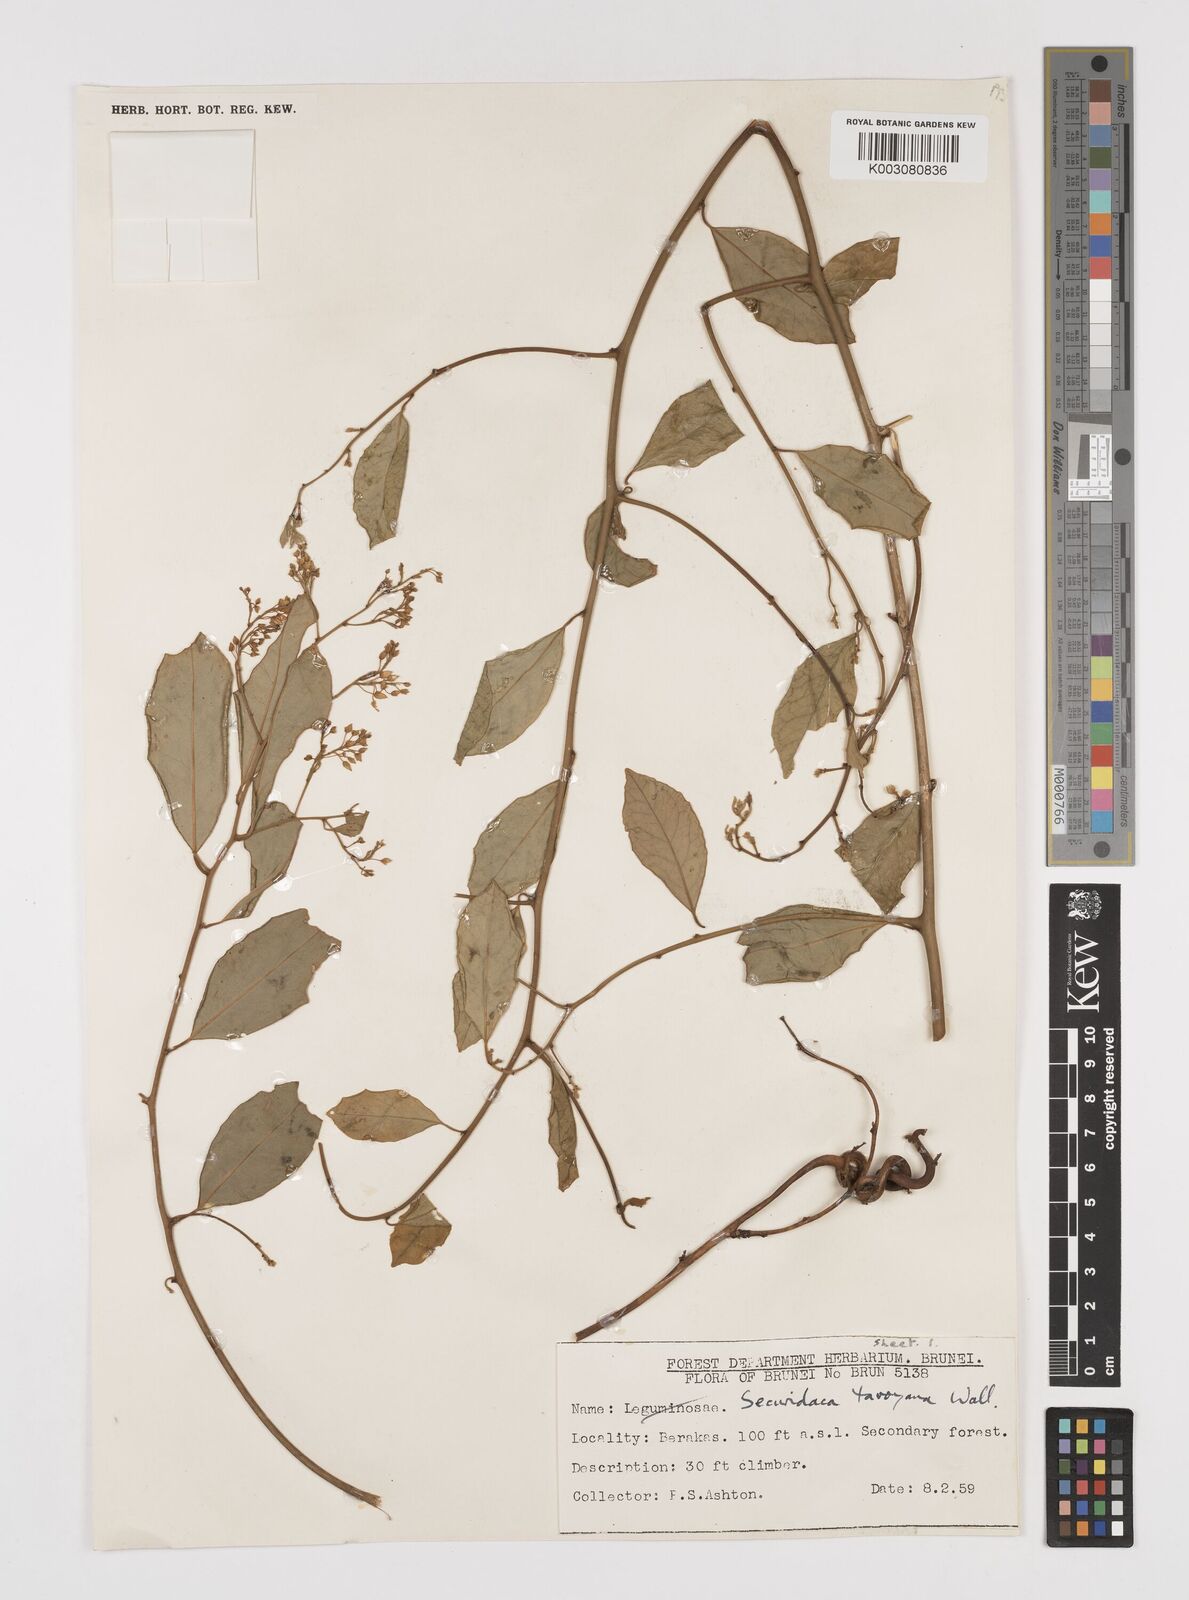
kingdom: Plantae
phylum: Tracheophyta
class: Magnoliopsida
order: Fabales
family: Polygalaceae
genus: Securidaca
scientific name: Securidaca inappendiculata
